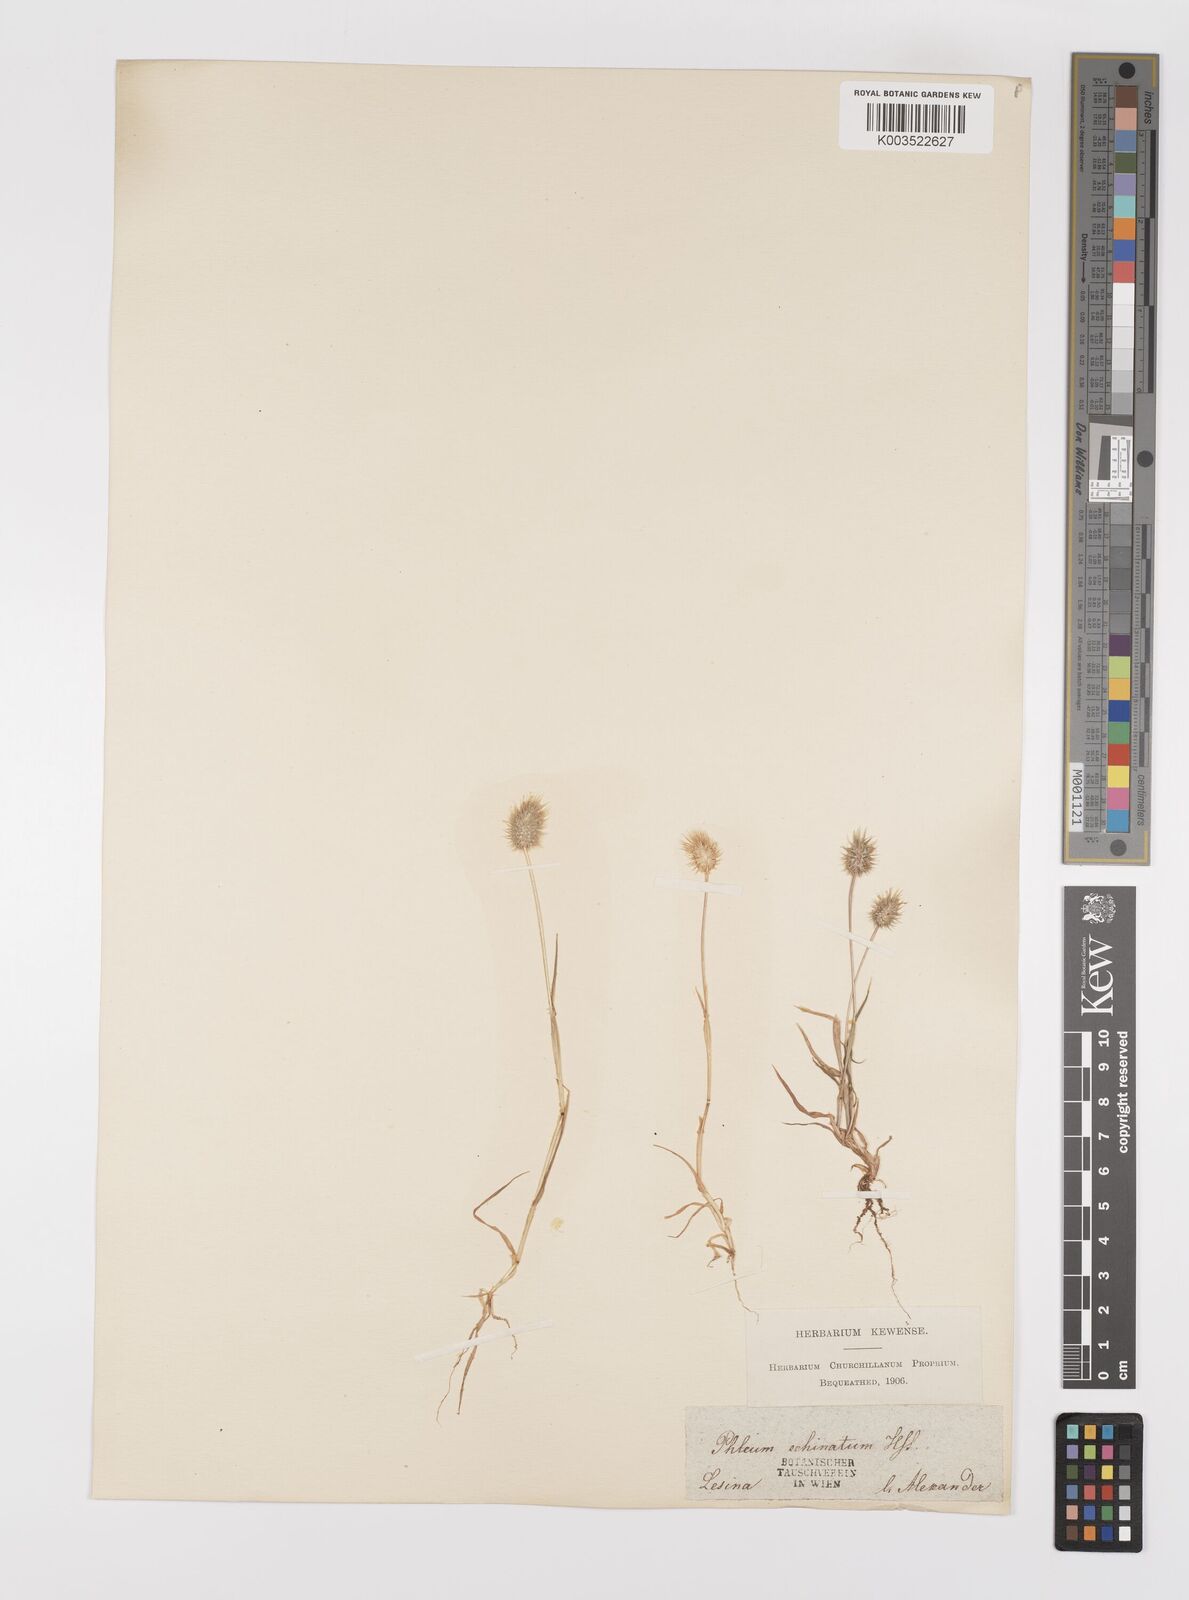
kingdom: Plantae
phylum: Tracheophyta
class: Liliopsida
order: Poales
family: Poaceae
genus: Phleum
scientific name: Phleum echinatum
